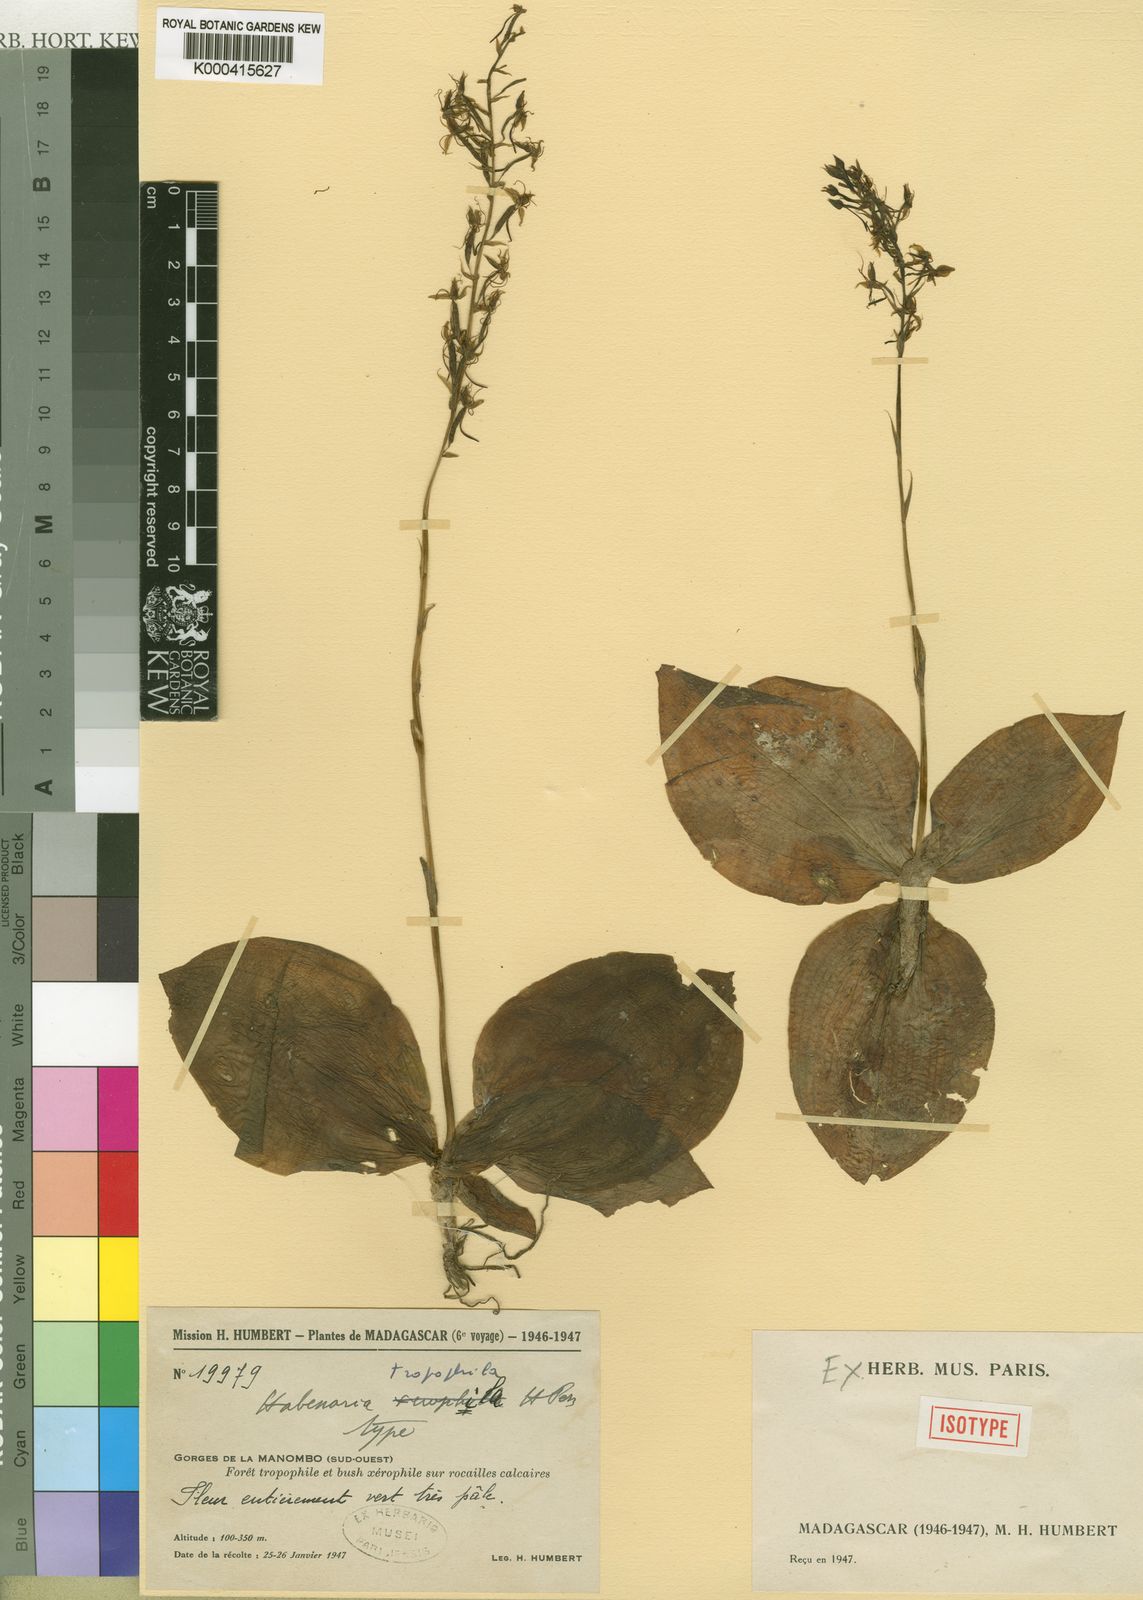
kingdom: Plantae
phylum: Tracheophyta
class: Liliopsida
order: Asparagales
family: Orchidaceae
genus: Habenaria
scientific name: Habenaria tropophila
